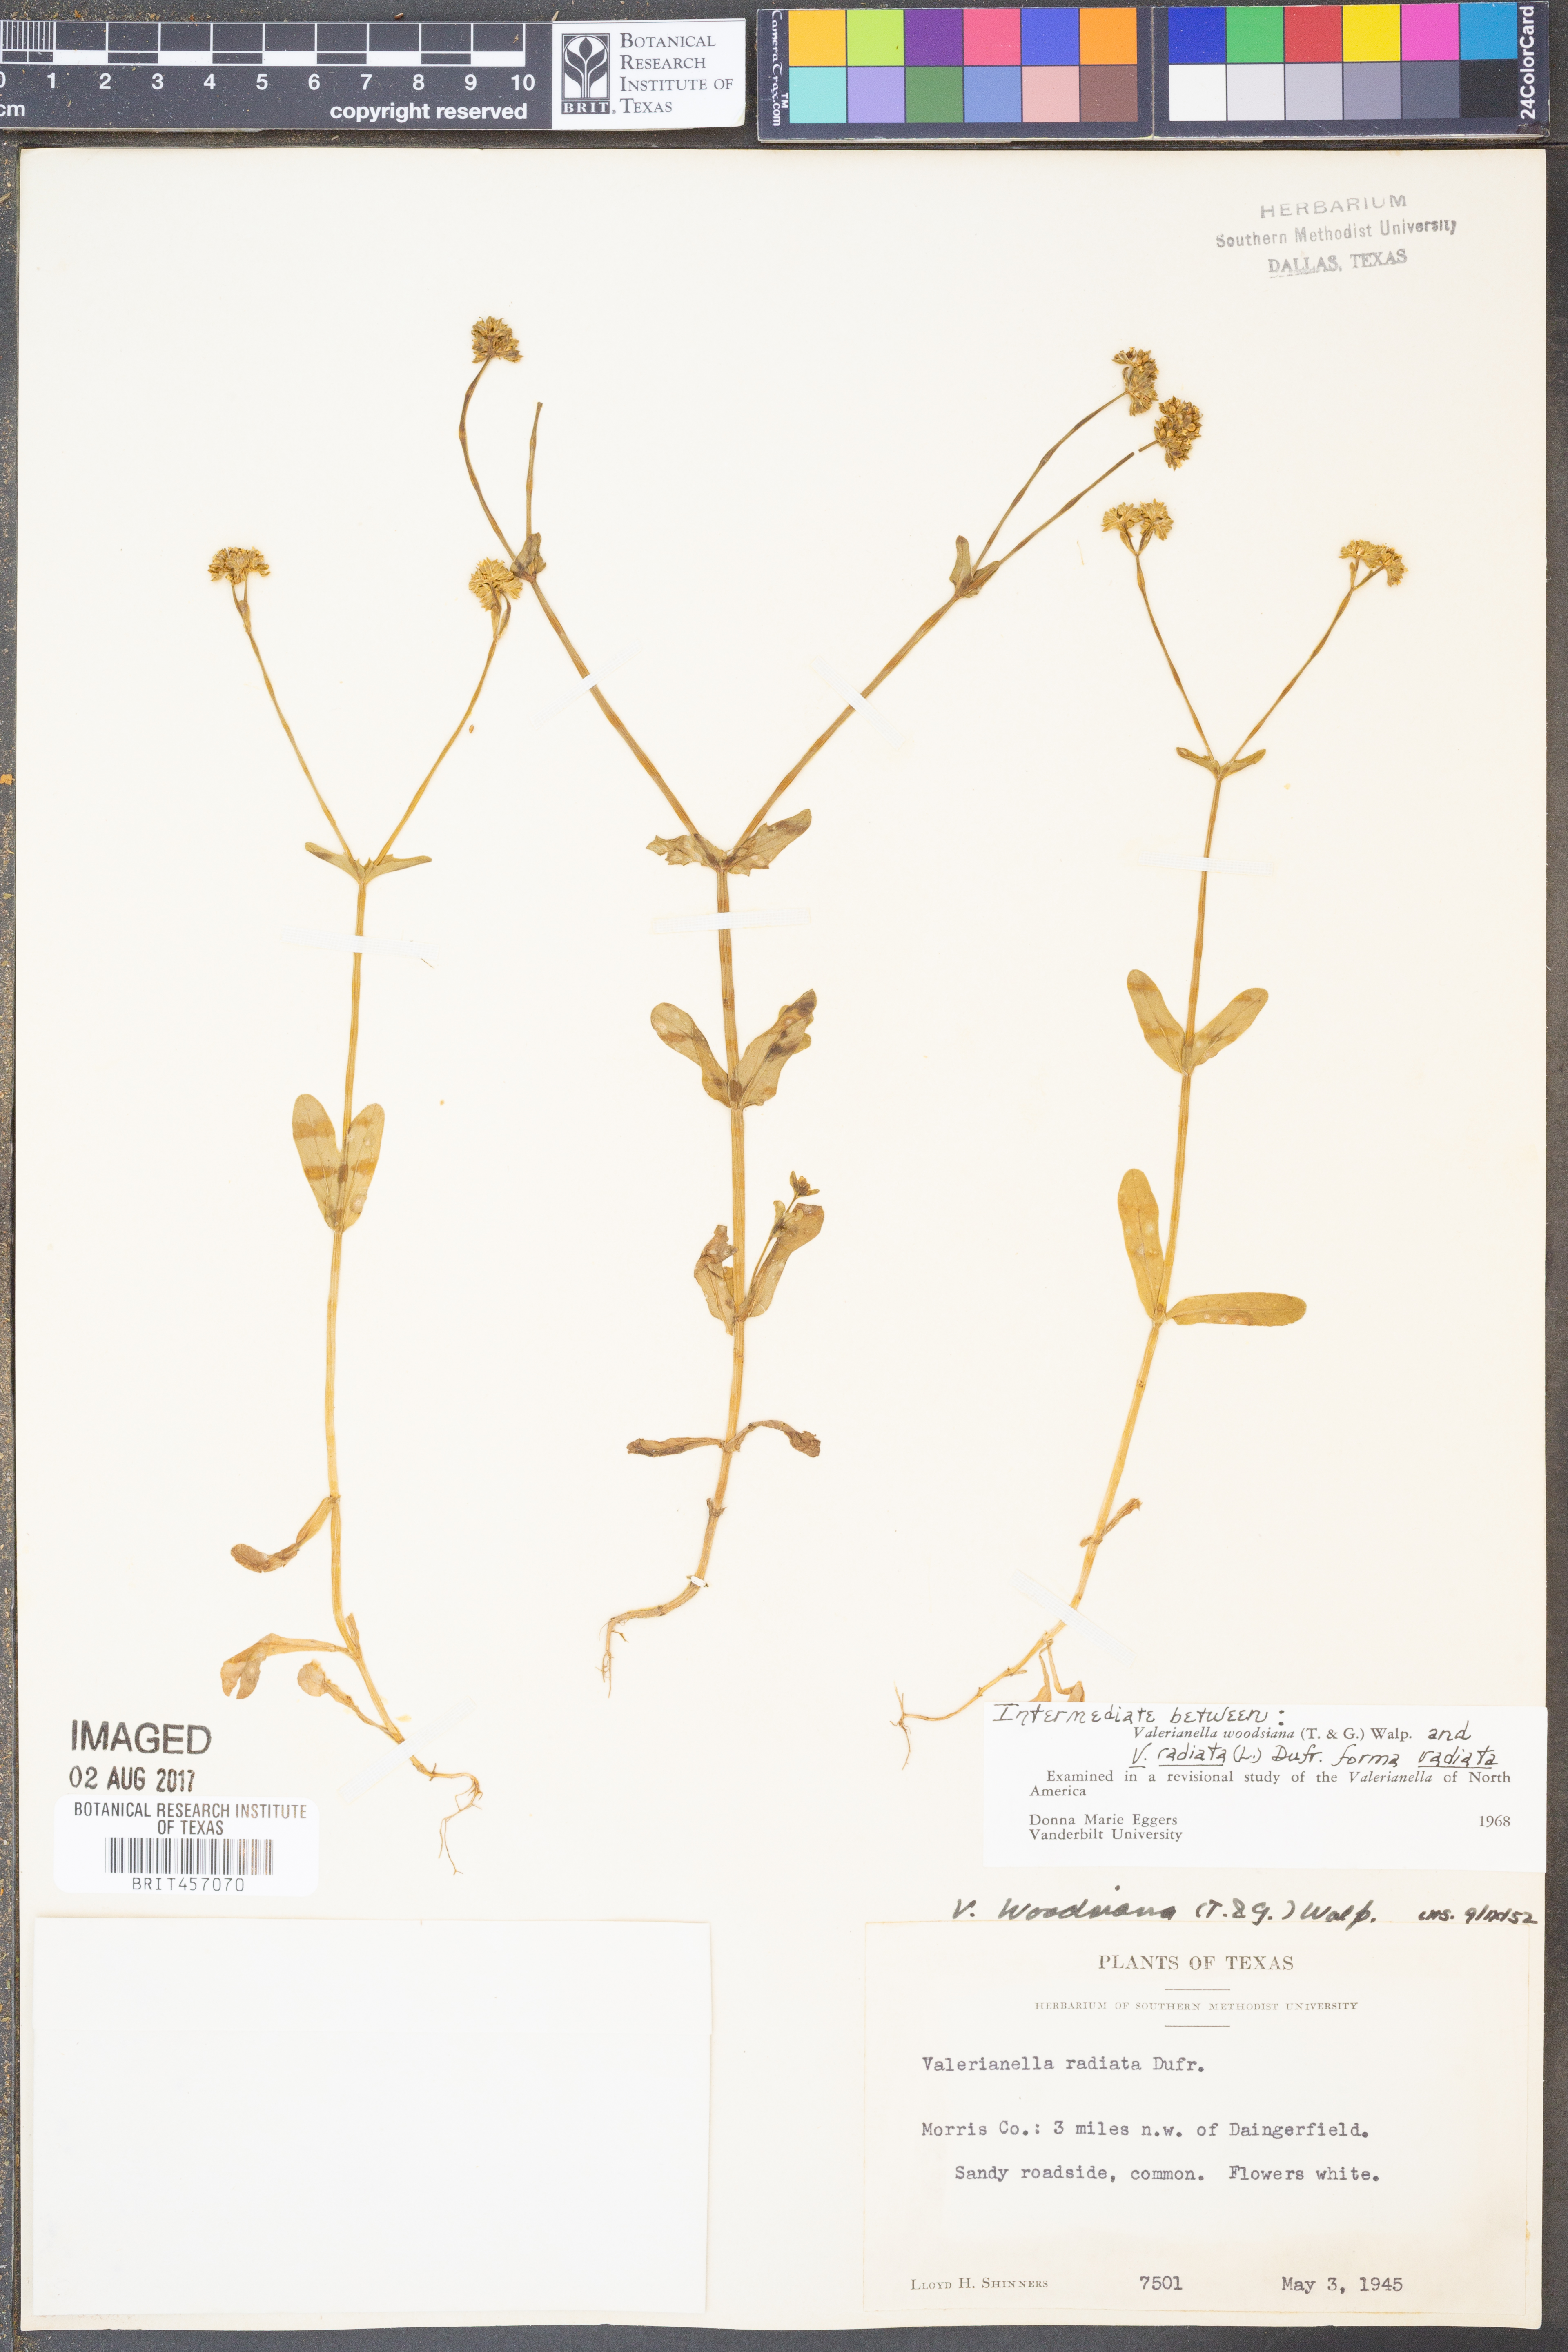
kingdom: Plantae
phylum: Tracheophyta
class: Magnoliopsida
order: Dipsacales
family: Caprifoliaceae
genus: Valerianella
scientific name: Valerianella radiata
